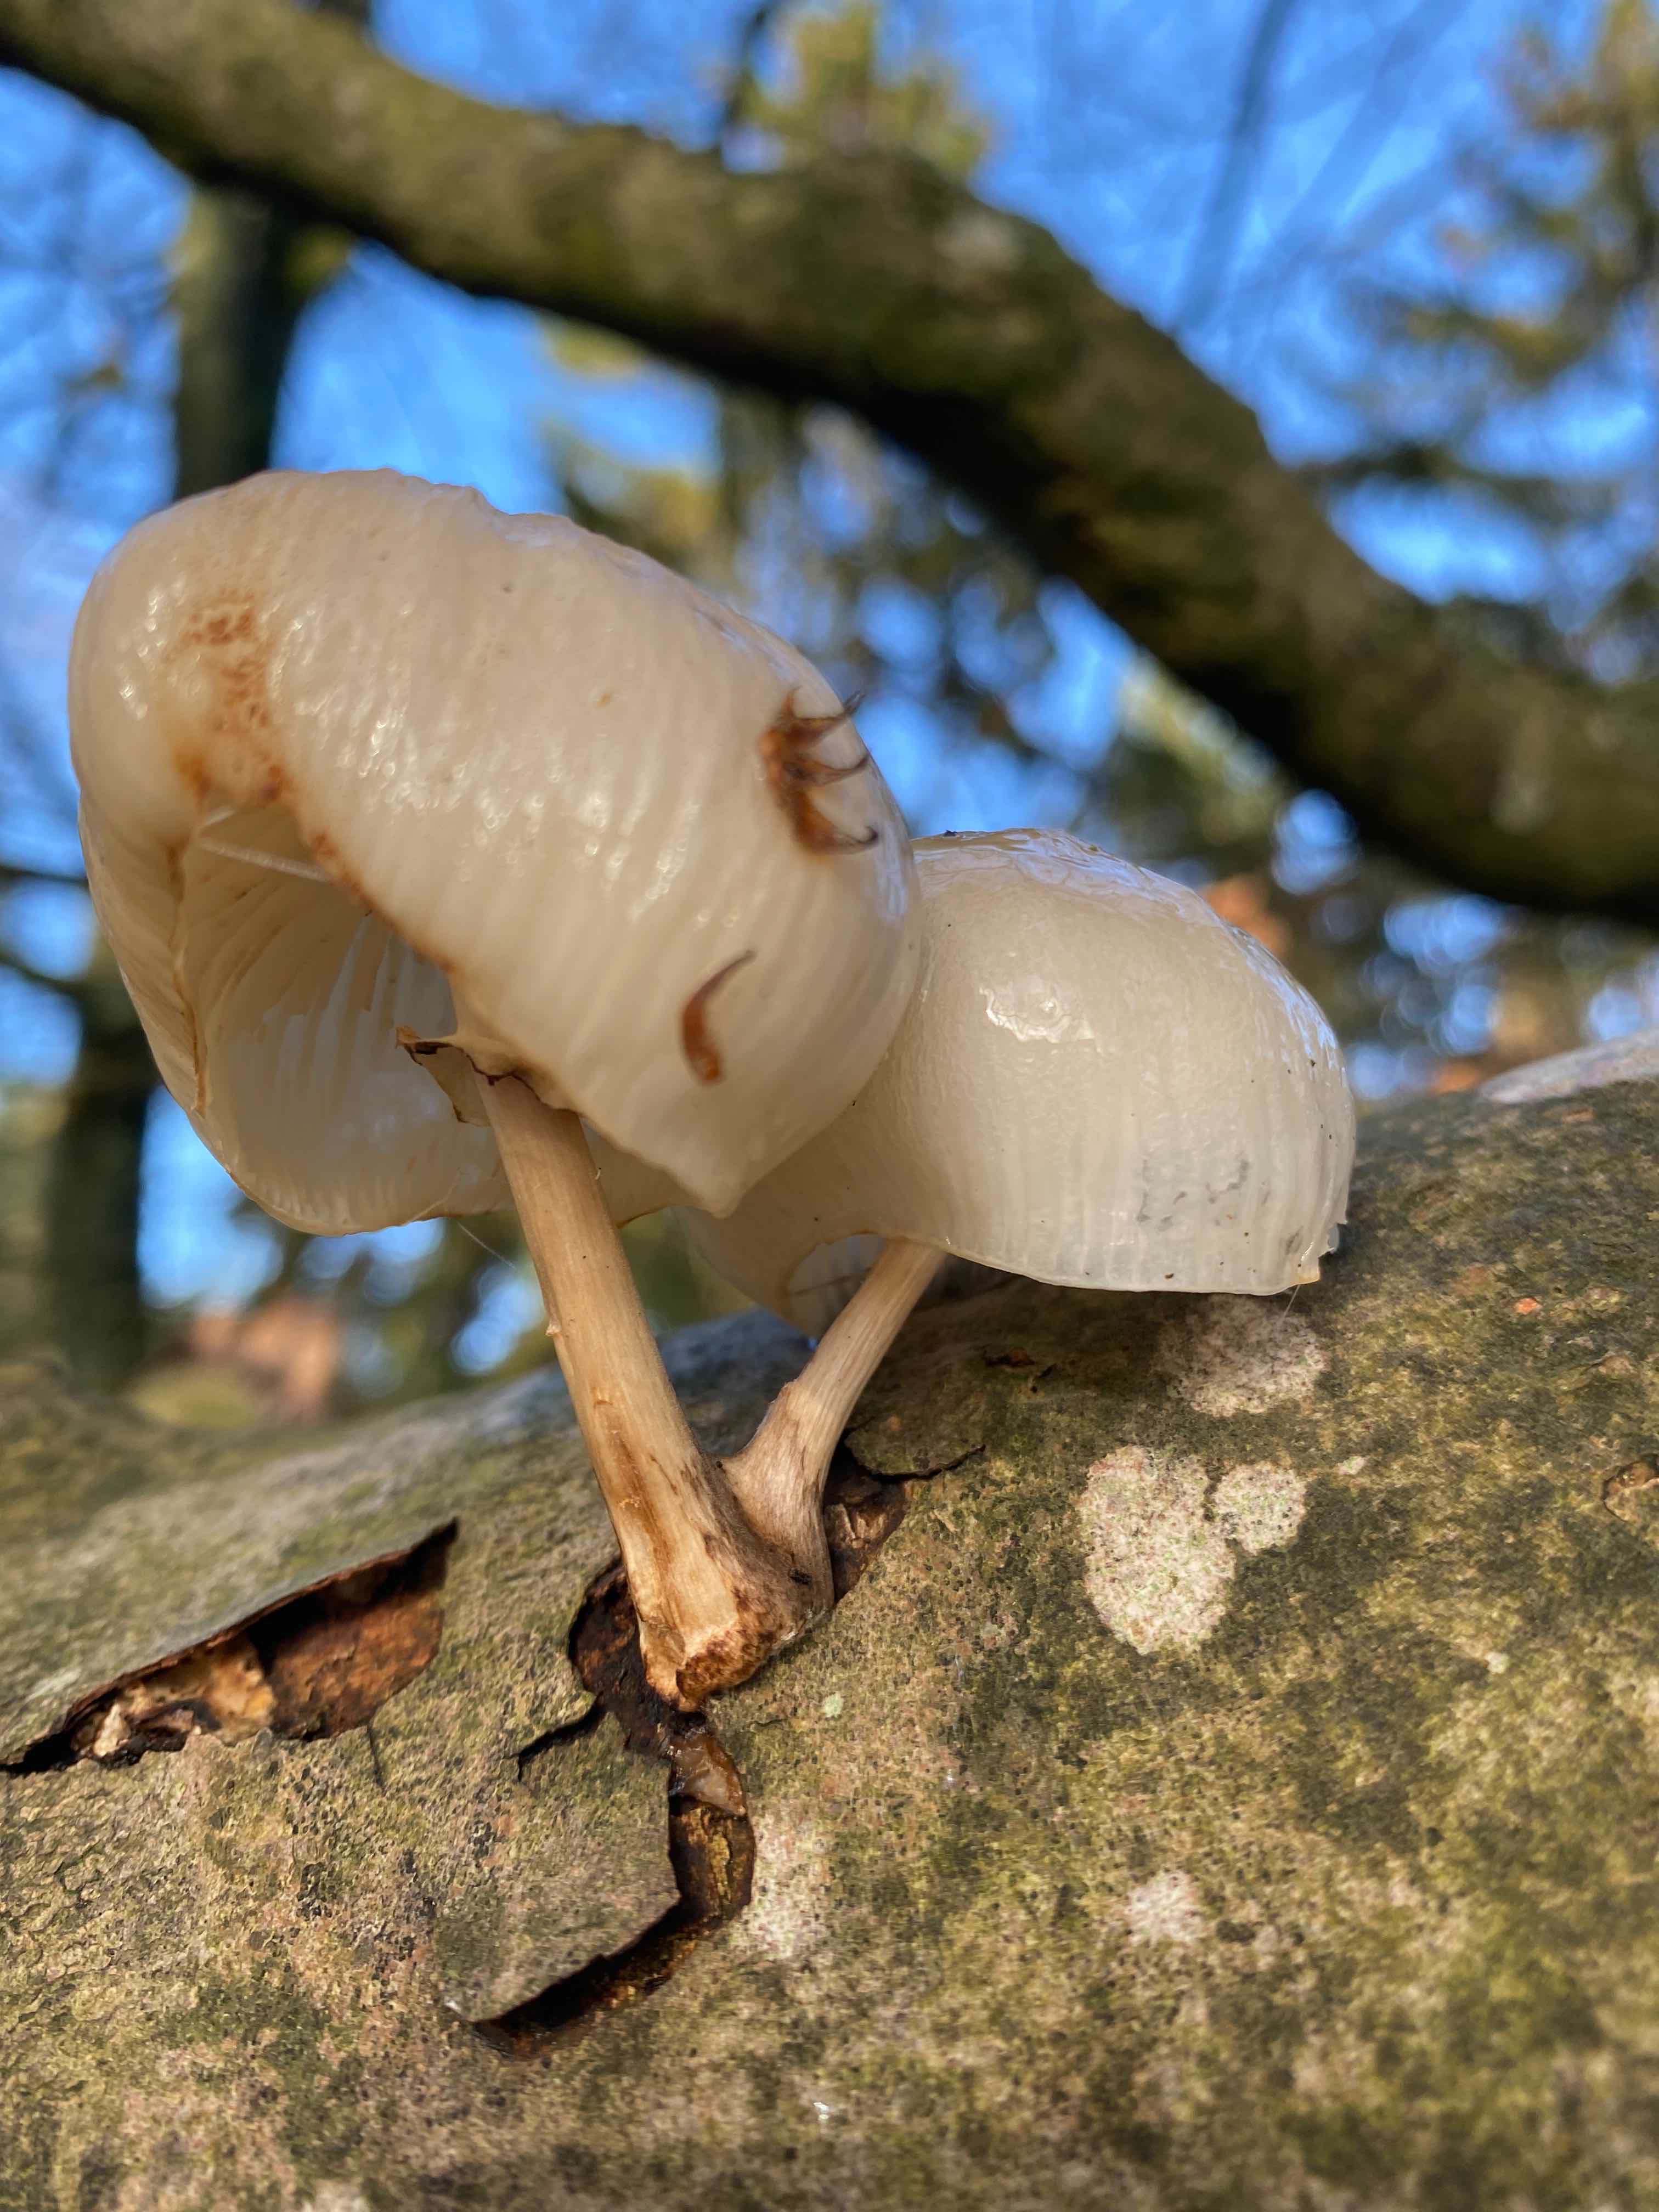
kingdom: Fungi
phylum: Basidiomycota
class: Agaricomycetes
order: Agaricales
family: Physalacriaceae
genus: Mucidula
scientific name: Mucidula mucida
